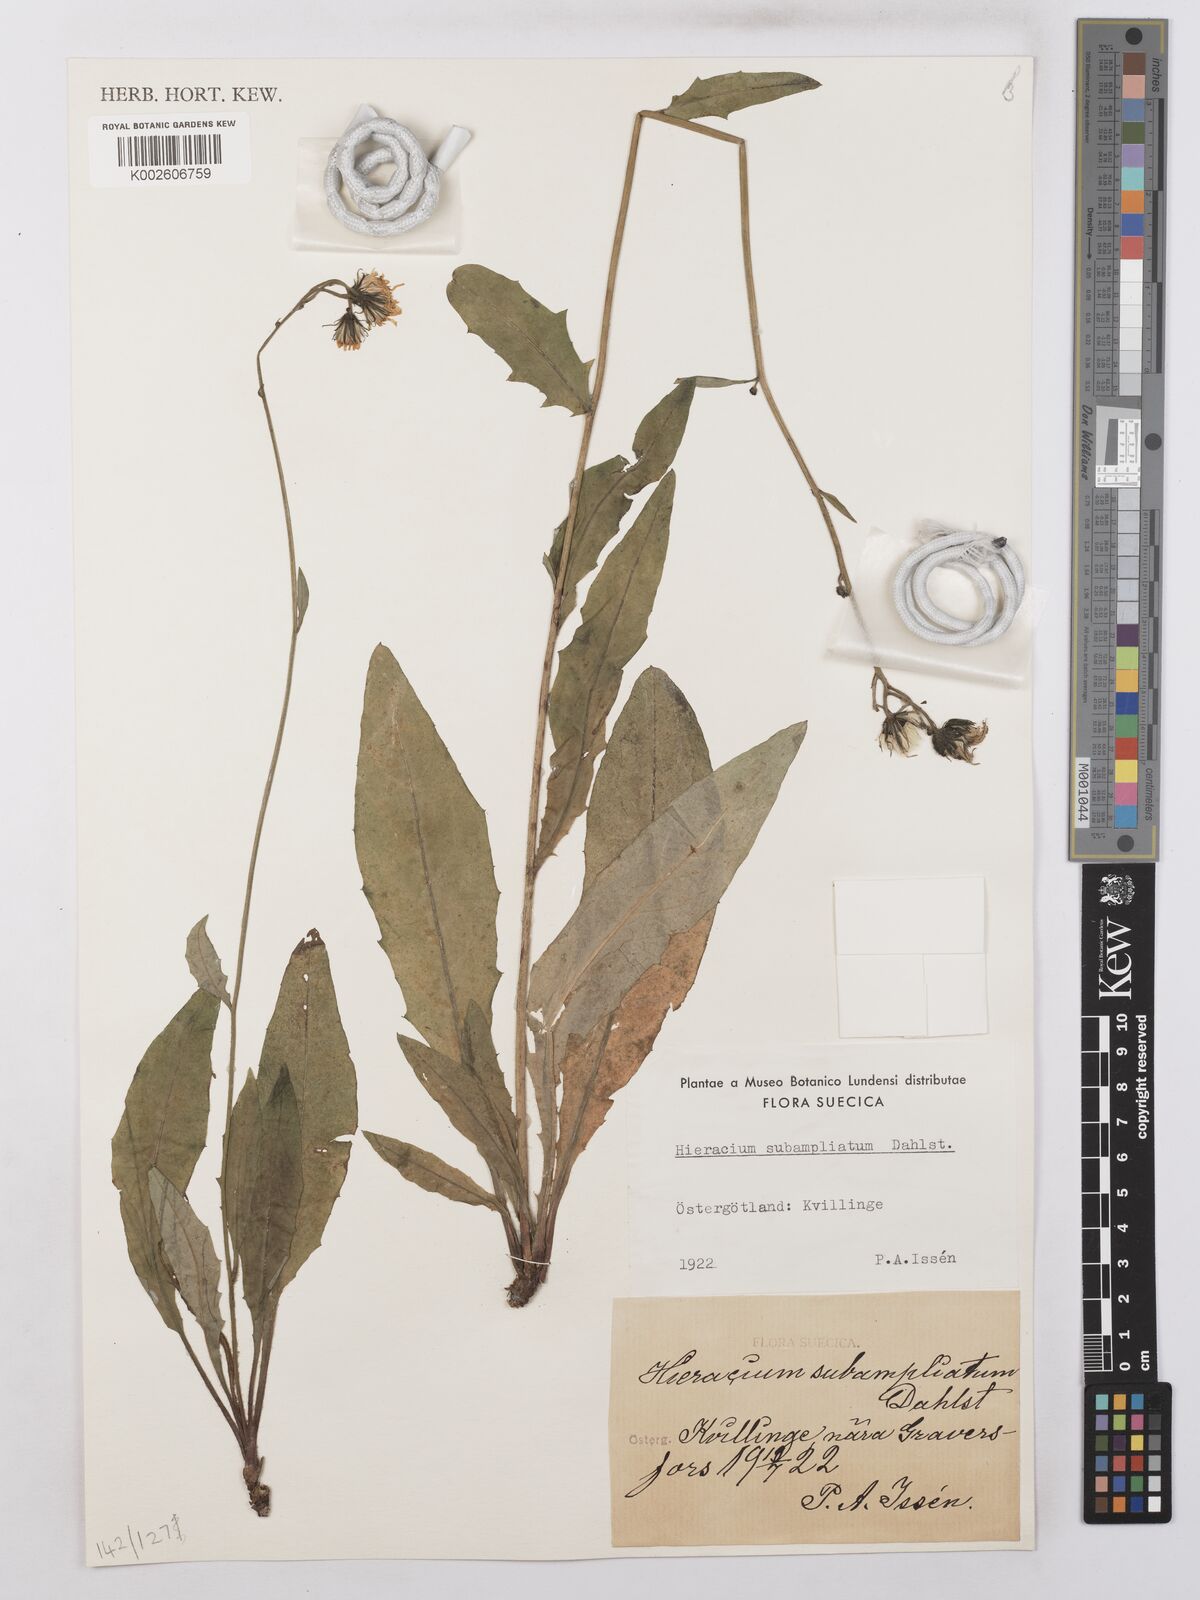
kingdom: Plantae
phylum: Tracheophyta
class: Magnoliopsida
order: Asterales
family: Asteraceae
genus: Hieracium
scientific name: Hieracium lachenalii
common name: Common hawkweed
